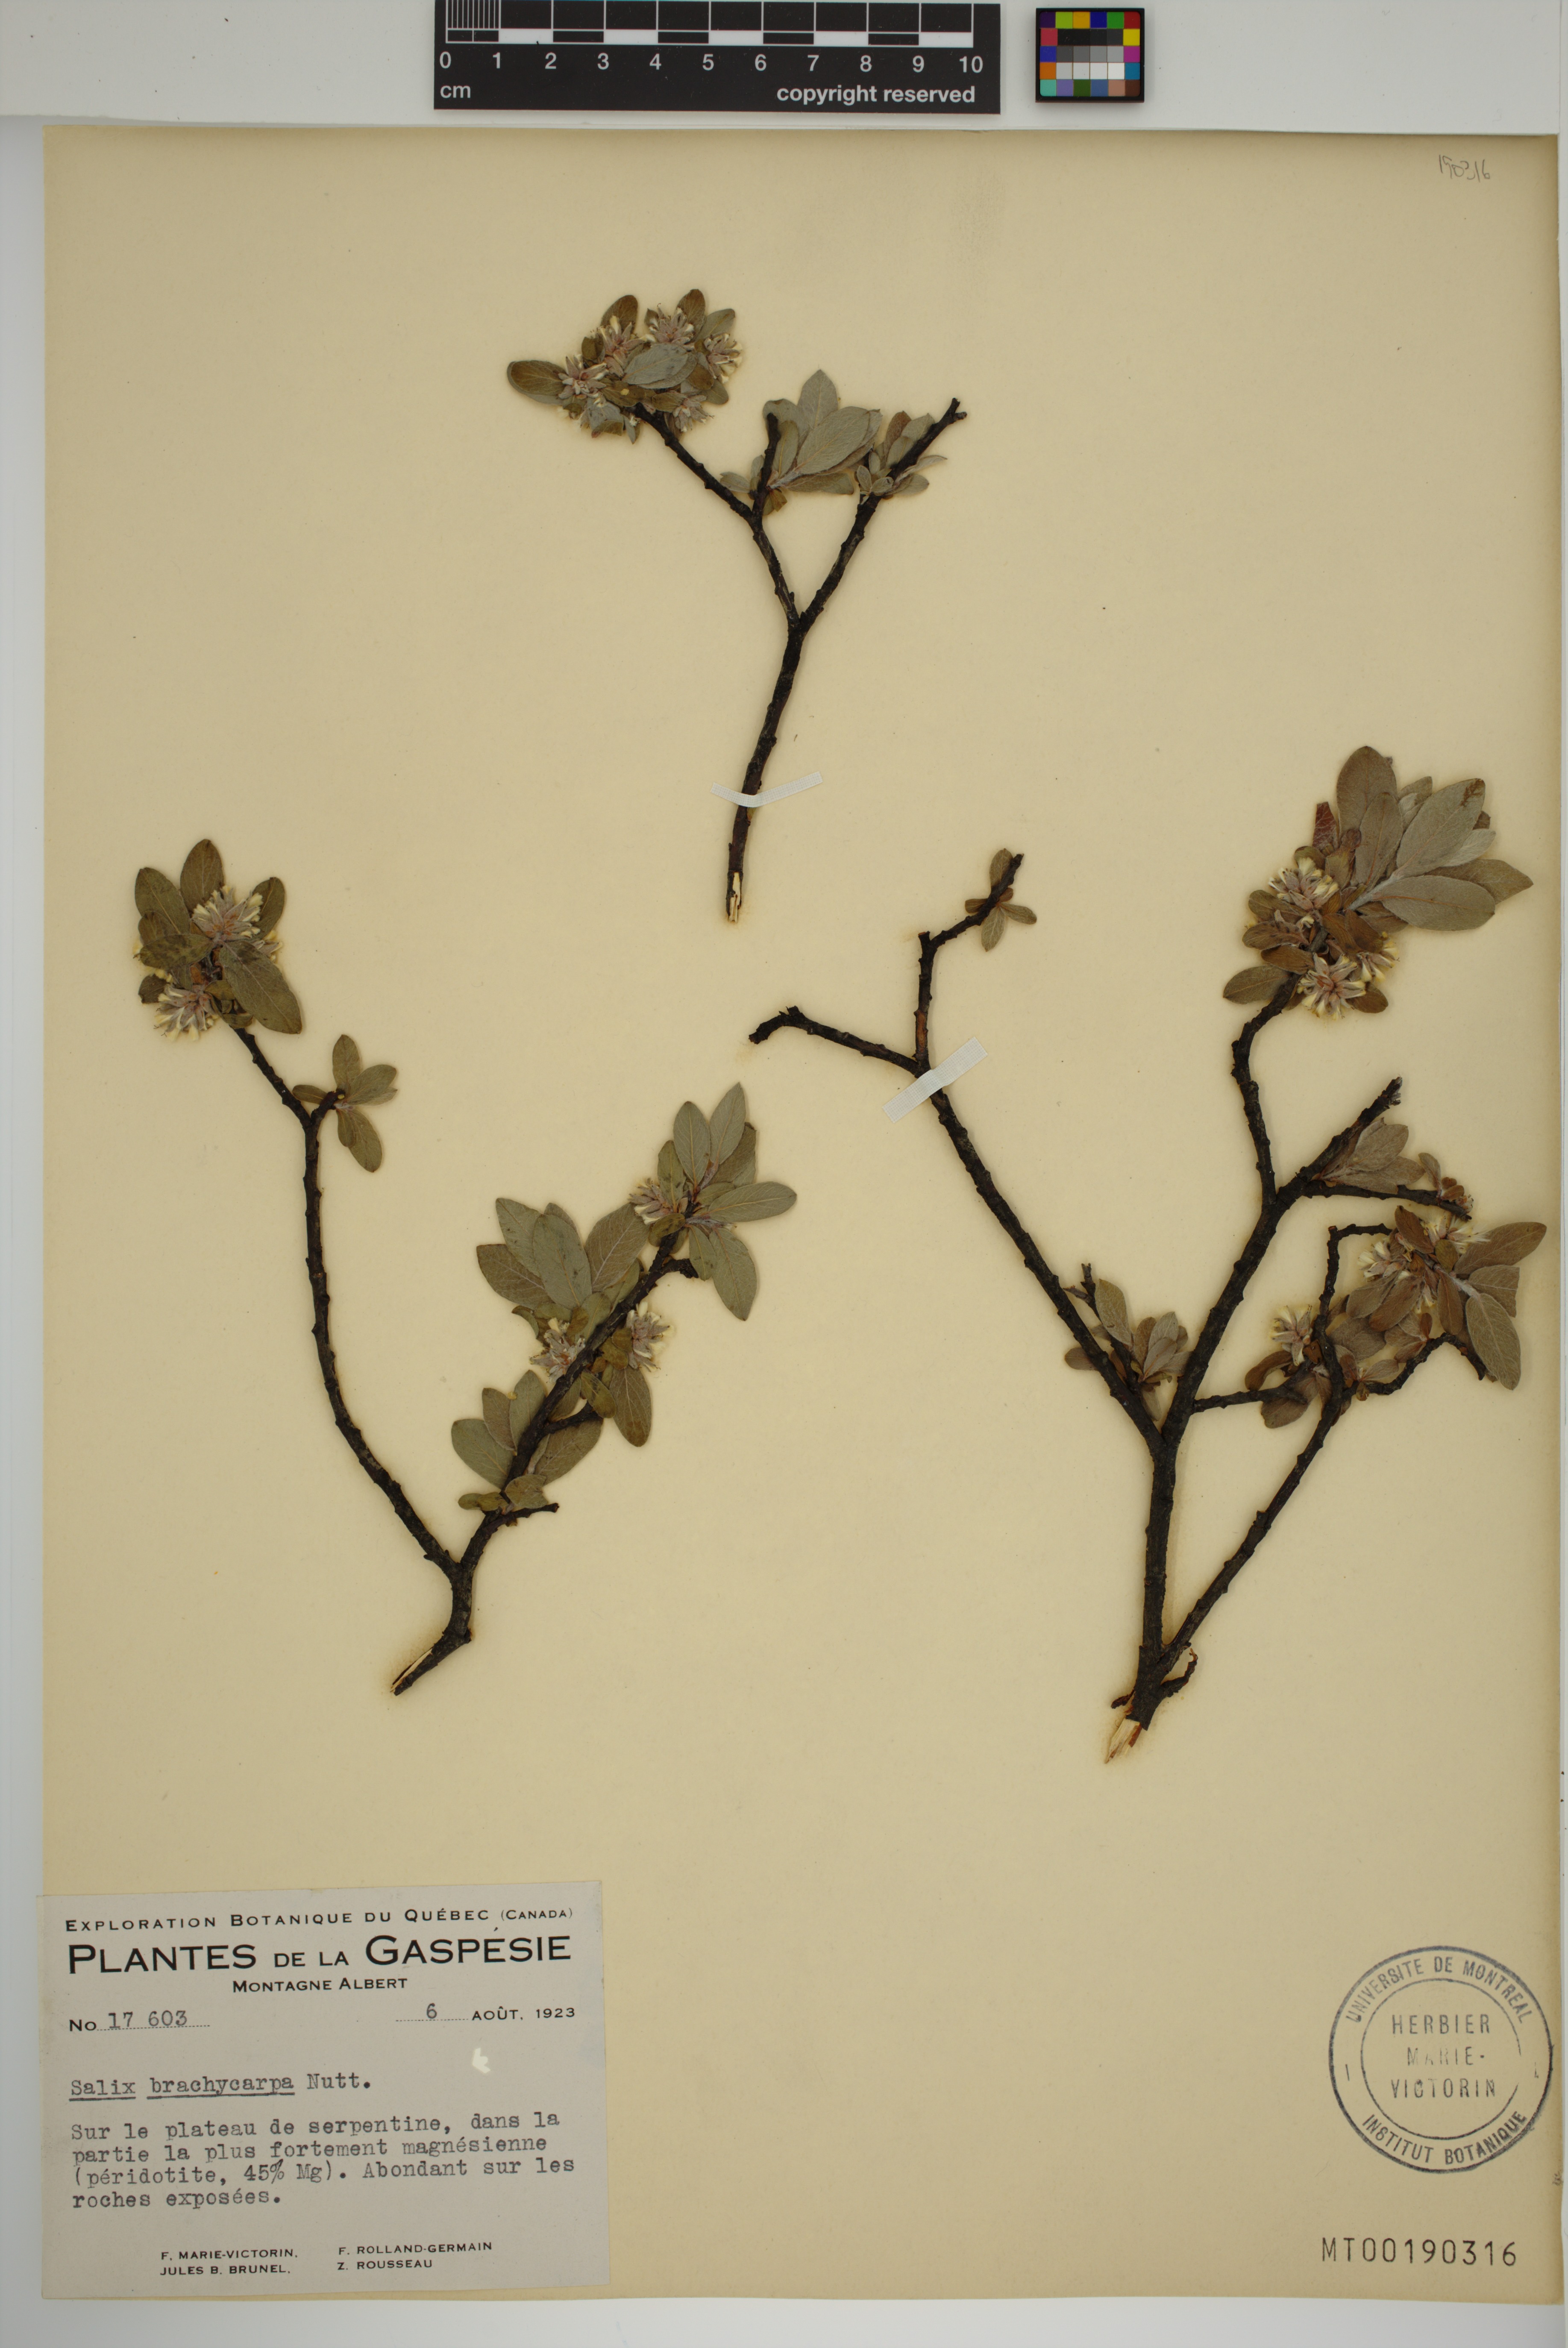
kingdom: Plantae
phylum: Tracheophyta
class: Magnoliopsida
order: Malpighiales
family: Salicaceae
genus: Salix
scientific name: Salix brachycarpa
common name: Barren-ground willow
